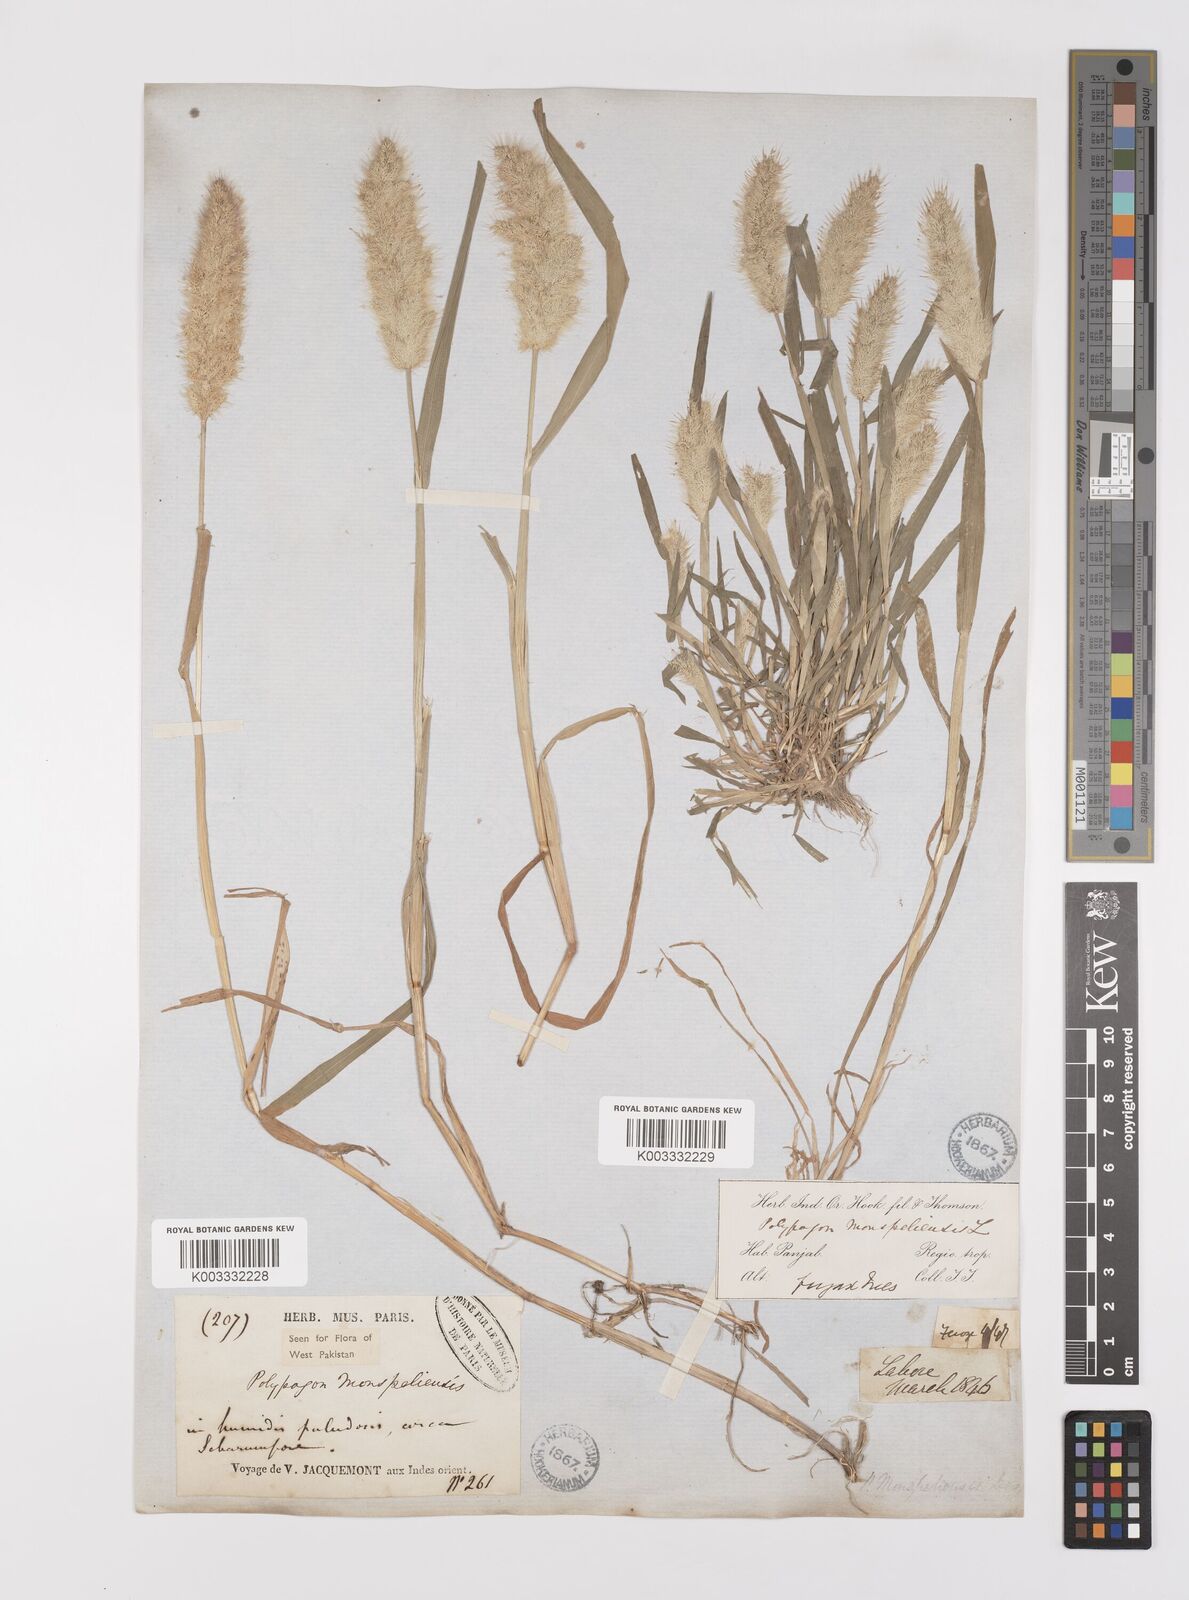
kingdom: Plantae
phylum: Tracheophyta
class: Liliopsida
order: Poales
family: Poaceae
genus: Polypogon
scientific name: Polypogon monspeliensis
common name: Annual rabbitsfoot grass
